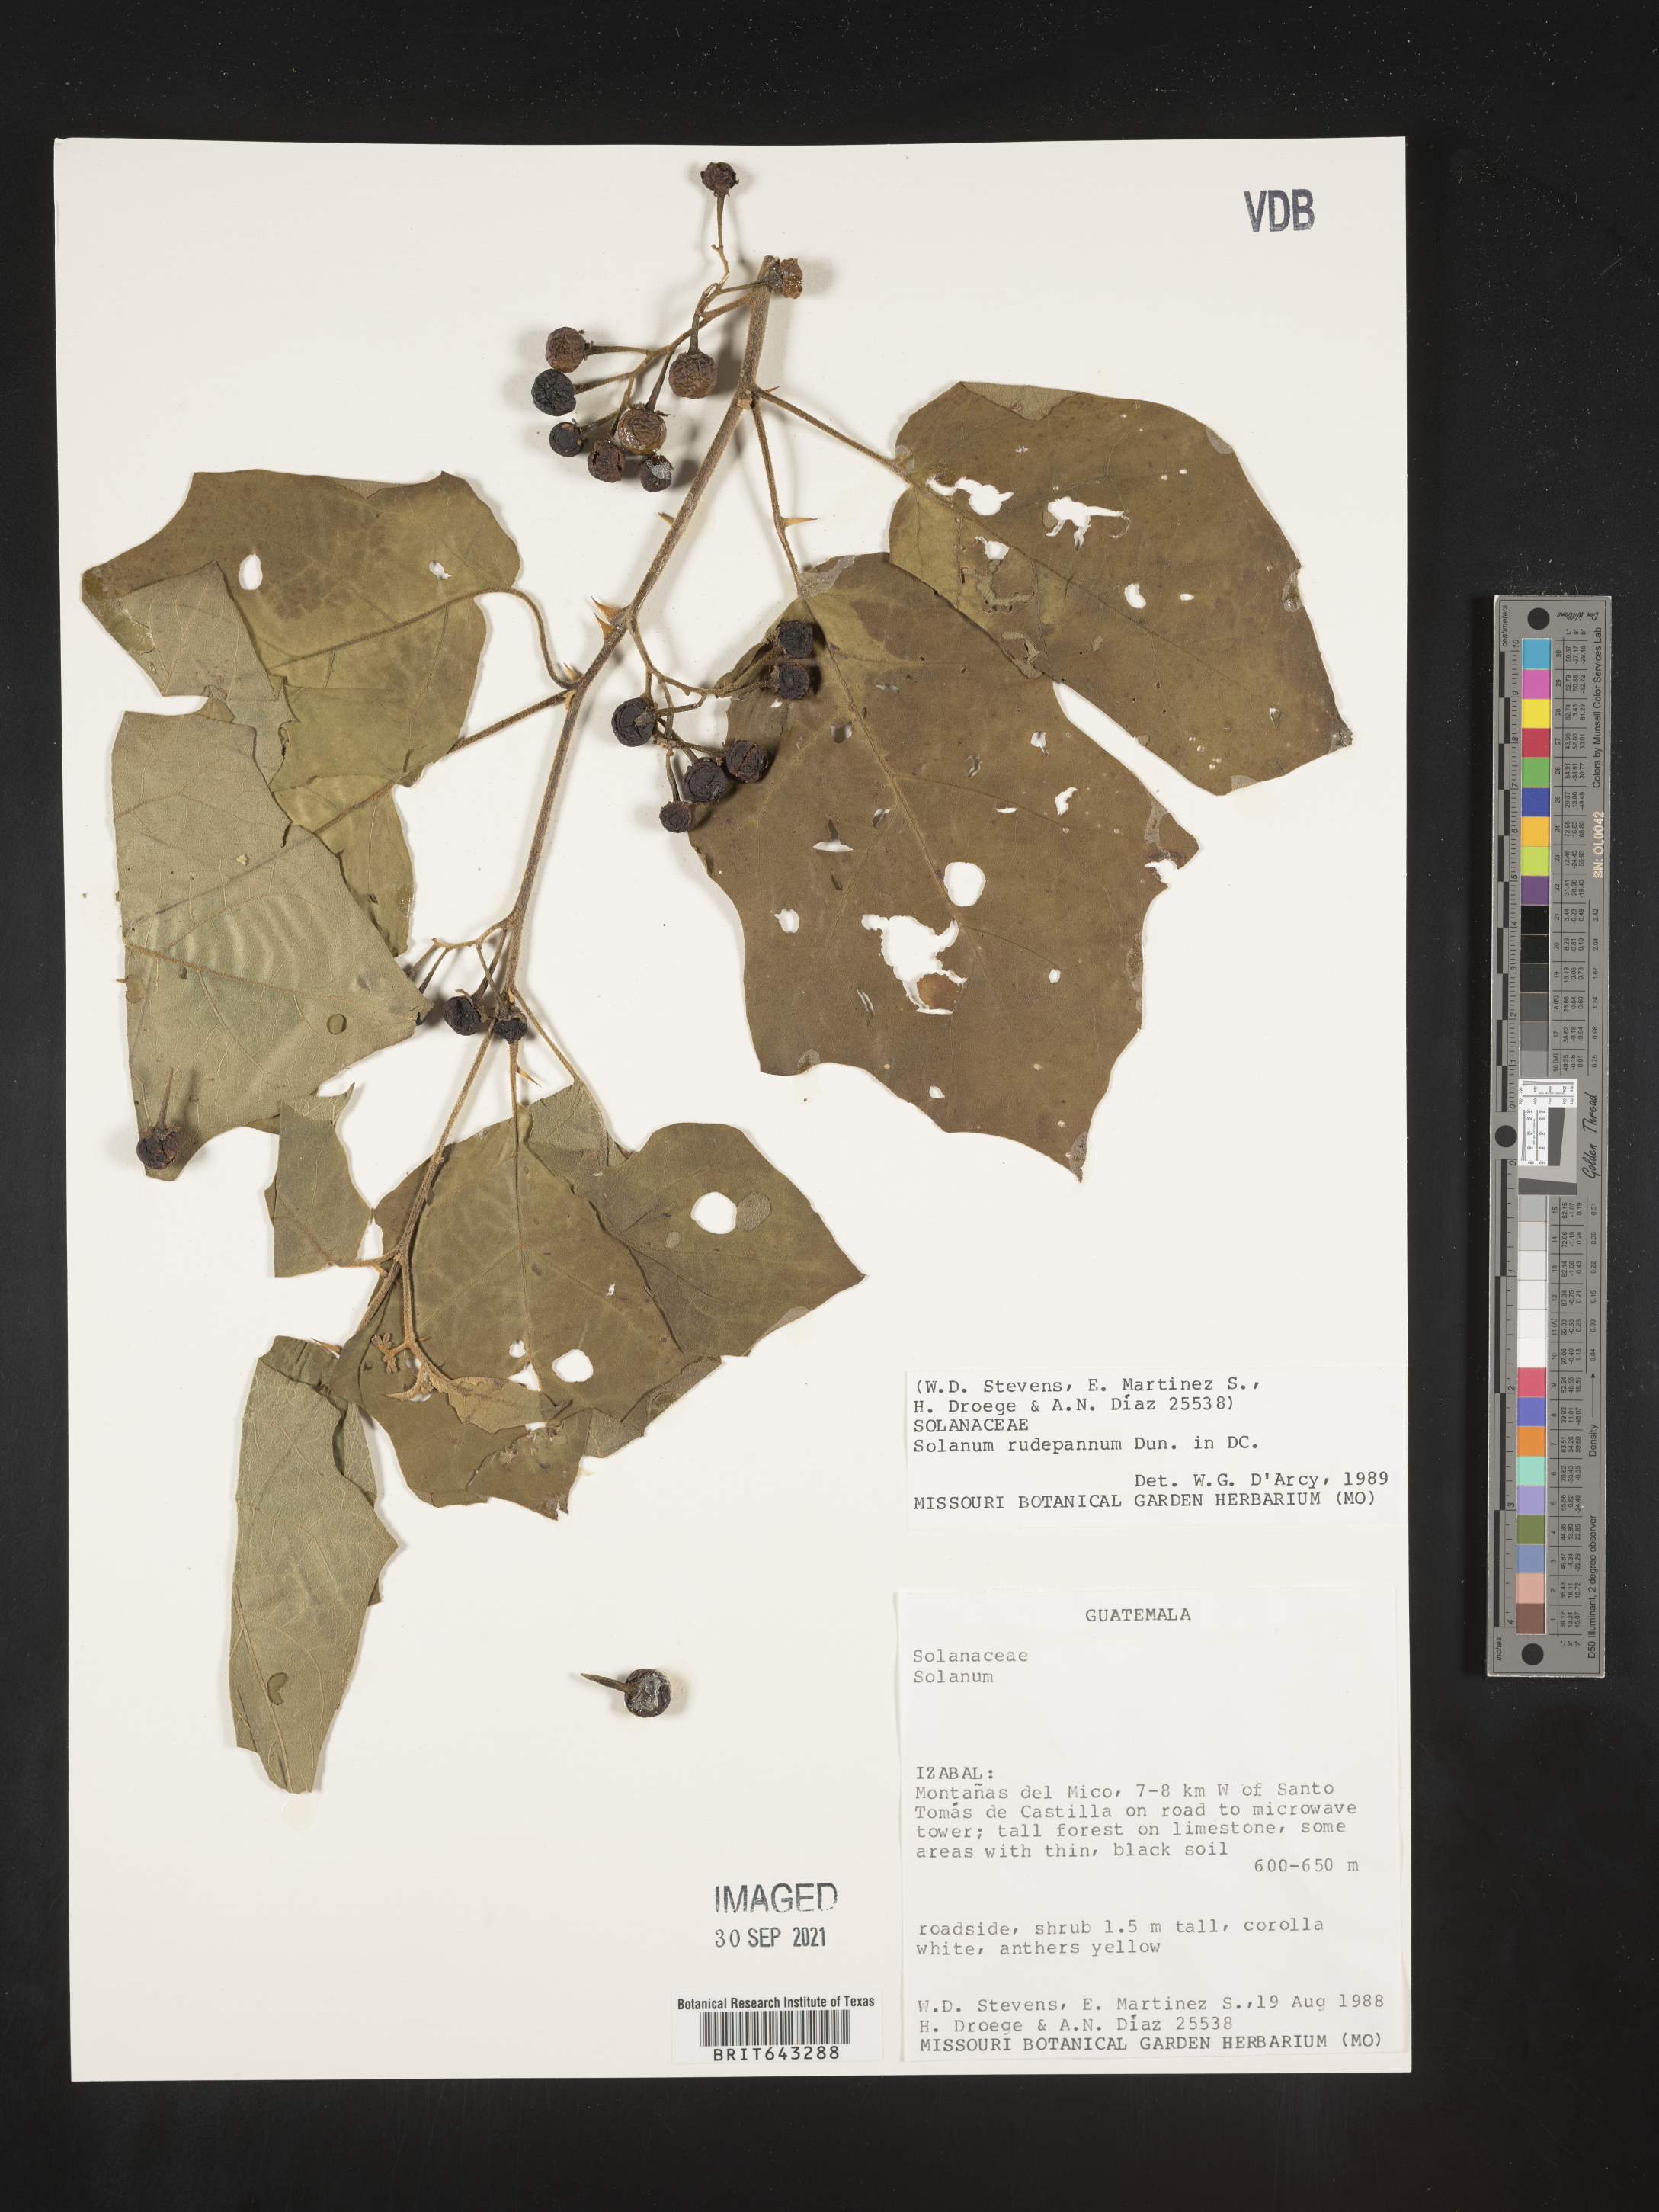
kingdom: Plantae
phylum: Tracheophyta
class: Magnoliopsida
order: Solanales
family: Solanaceae
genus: Solanum
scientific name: Solanum
